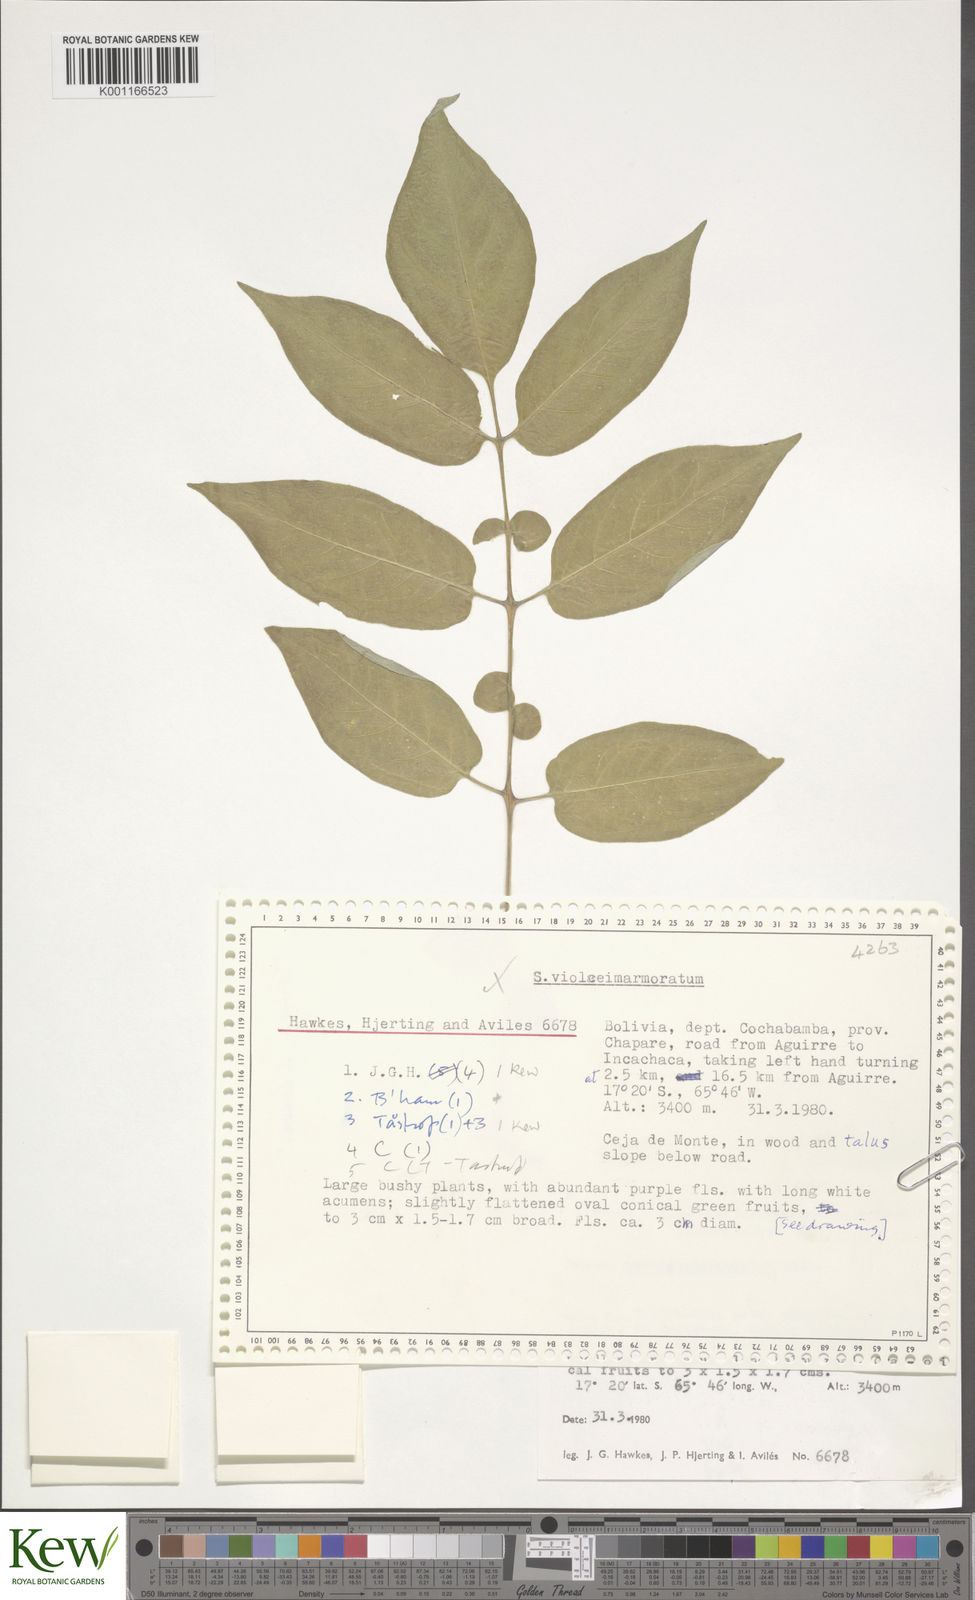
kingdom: Plantae
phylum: Tracheophyta
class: Magnoliopsida
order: Solanales
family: Solanaceae
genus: Solanum
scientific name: Solanum violaceimarmoratum
